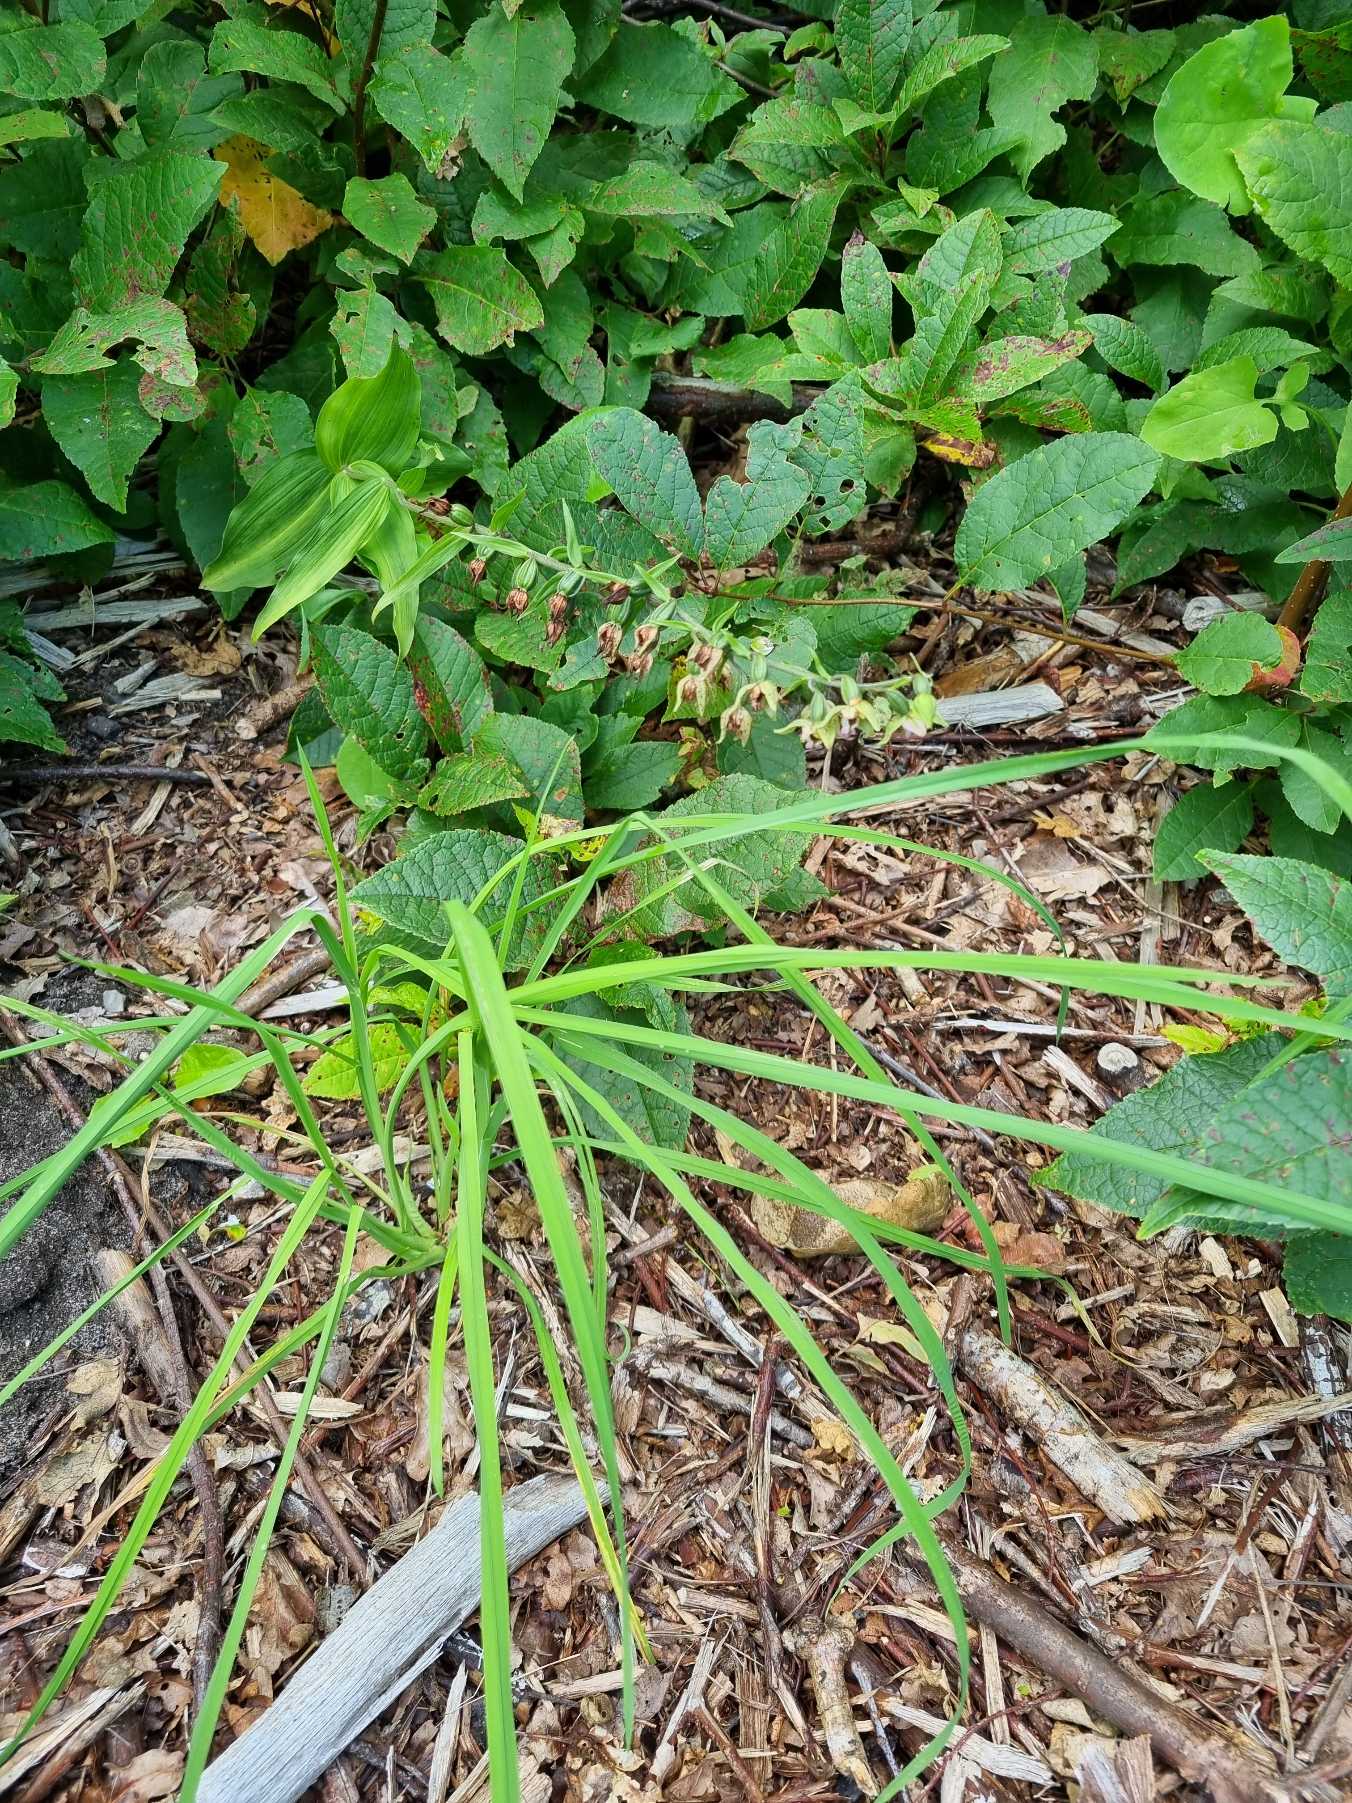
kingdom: Plantae
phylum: Tracheophyta
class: Liliopsida
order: Asparagales
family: Orchidaceae
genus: Epipactis
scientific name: Epipactis helleborine
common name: Skov-hullæbe
